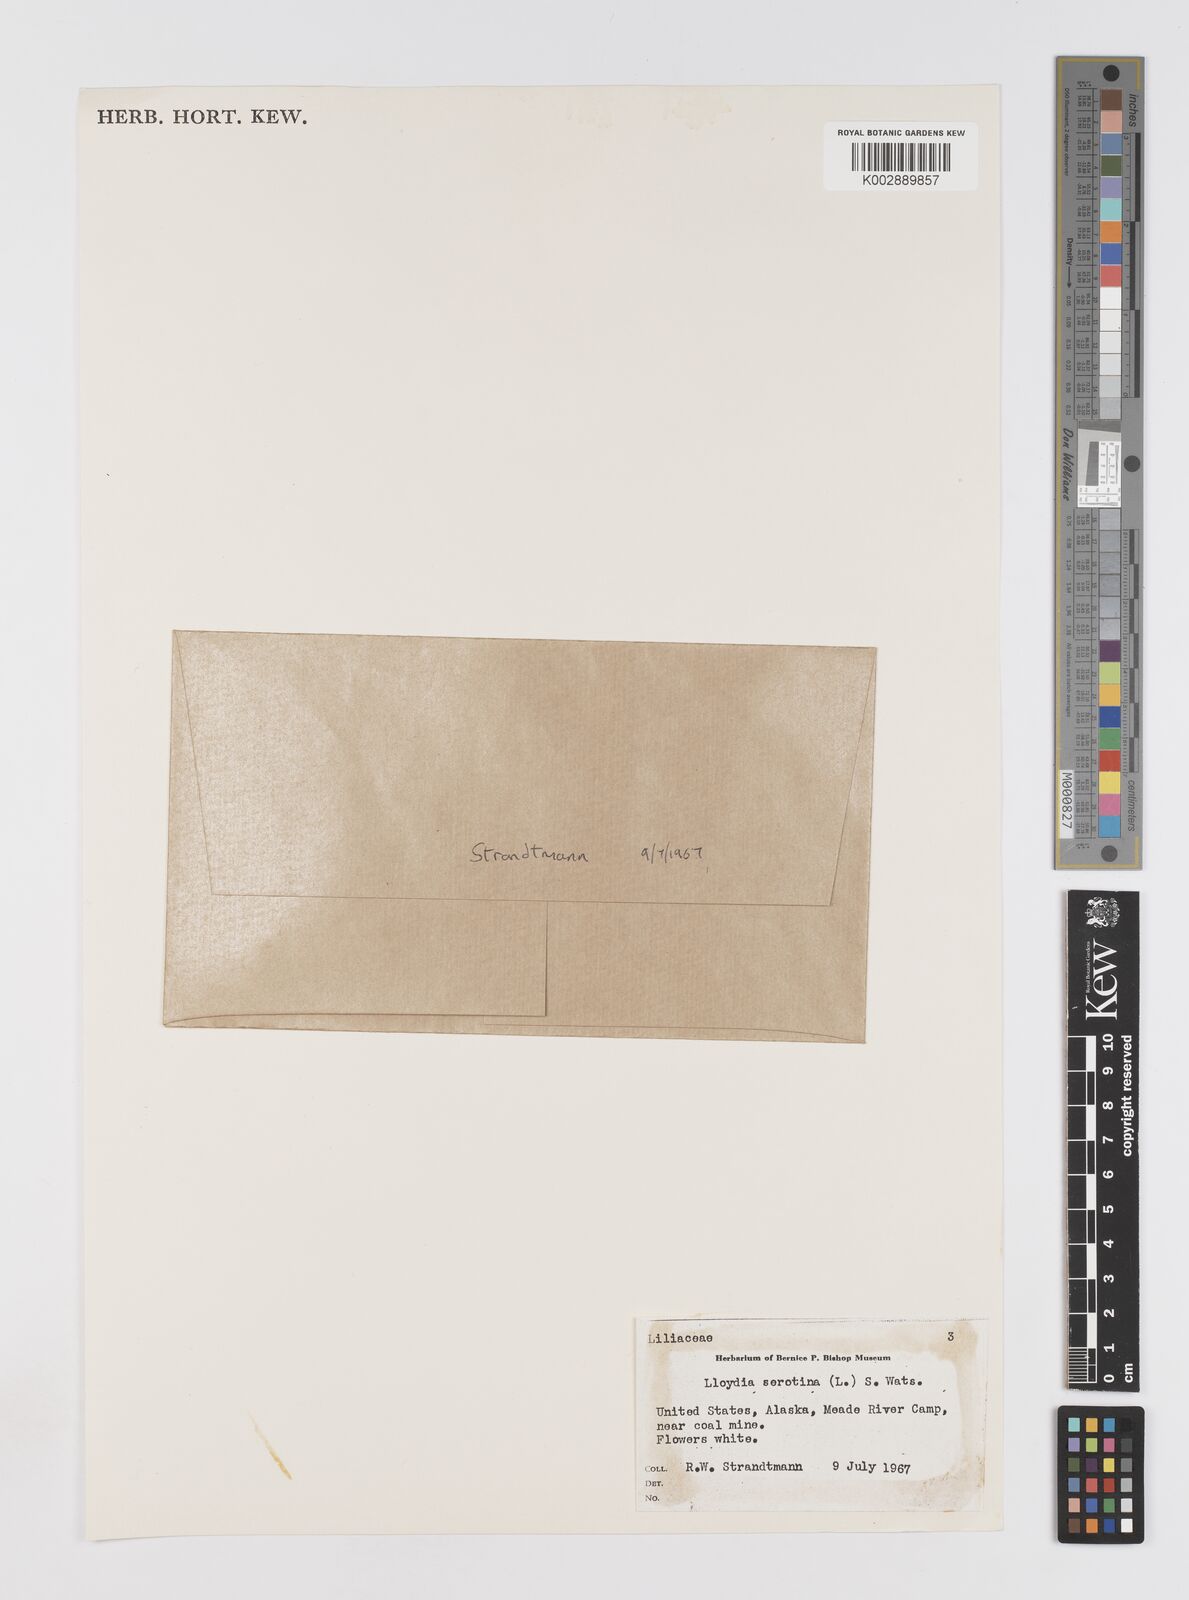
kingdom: Plantae
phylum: Tracheophyta
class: Liliopsida
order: Liliales
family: Liliaceae
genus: Gagea
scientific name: Gagea serotina
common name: Snowdon lily
